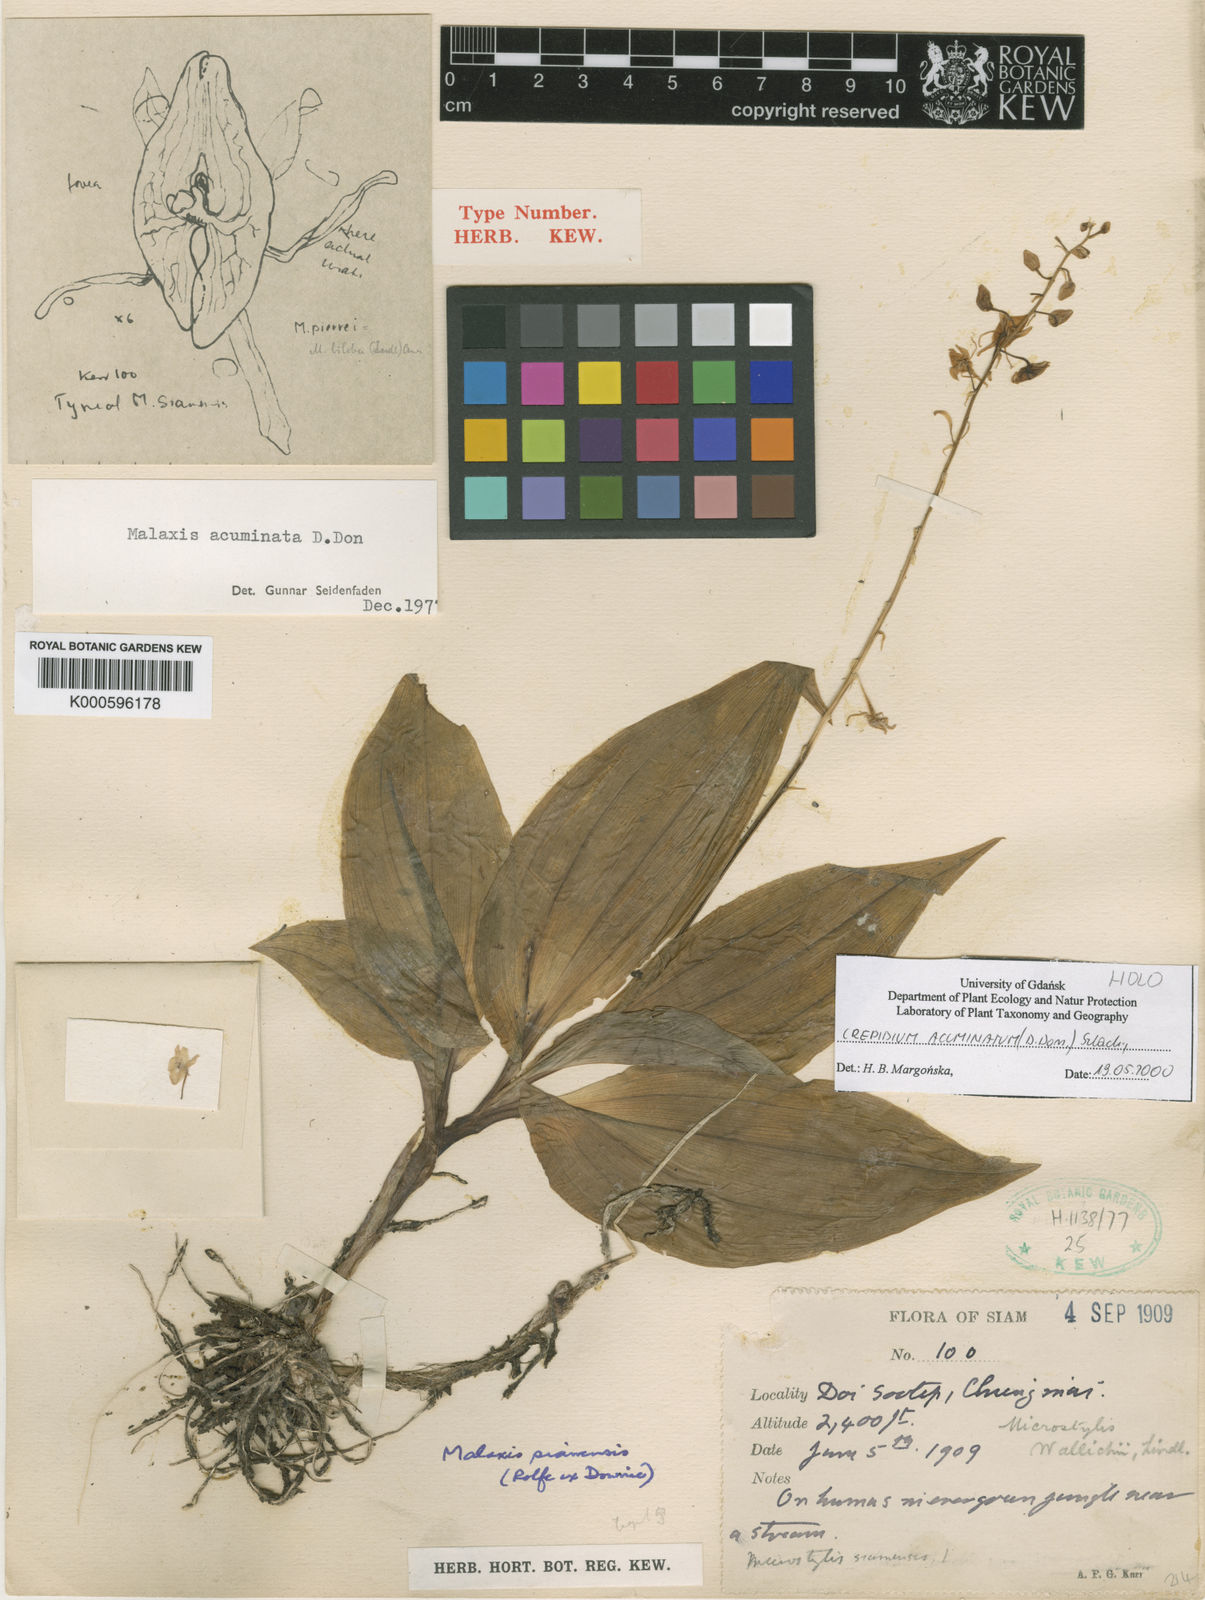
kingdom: Plantae
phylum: Tracheophyta
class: Liliopsida
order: Asparagales
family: Orchidaceae
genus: Crepidium
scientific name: Crepidium acuminatum
